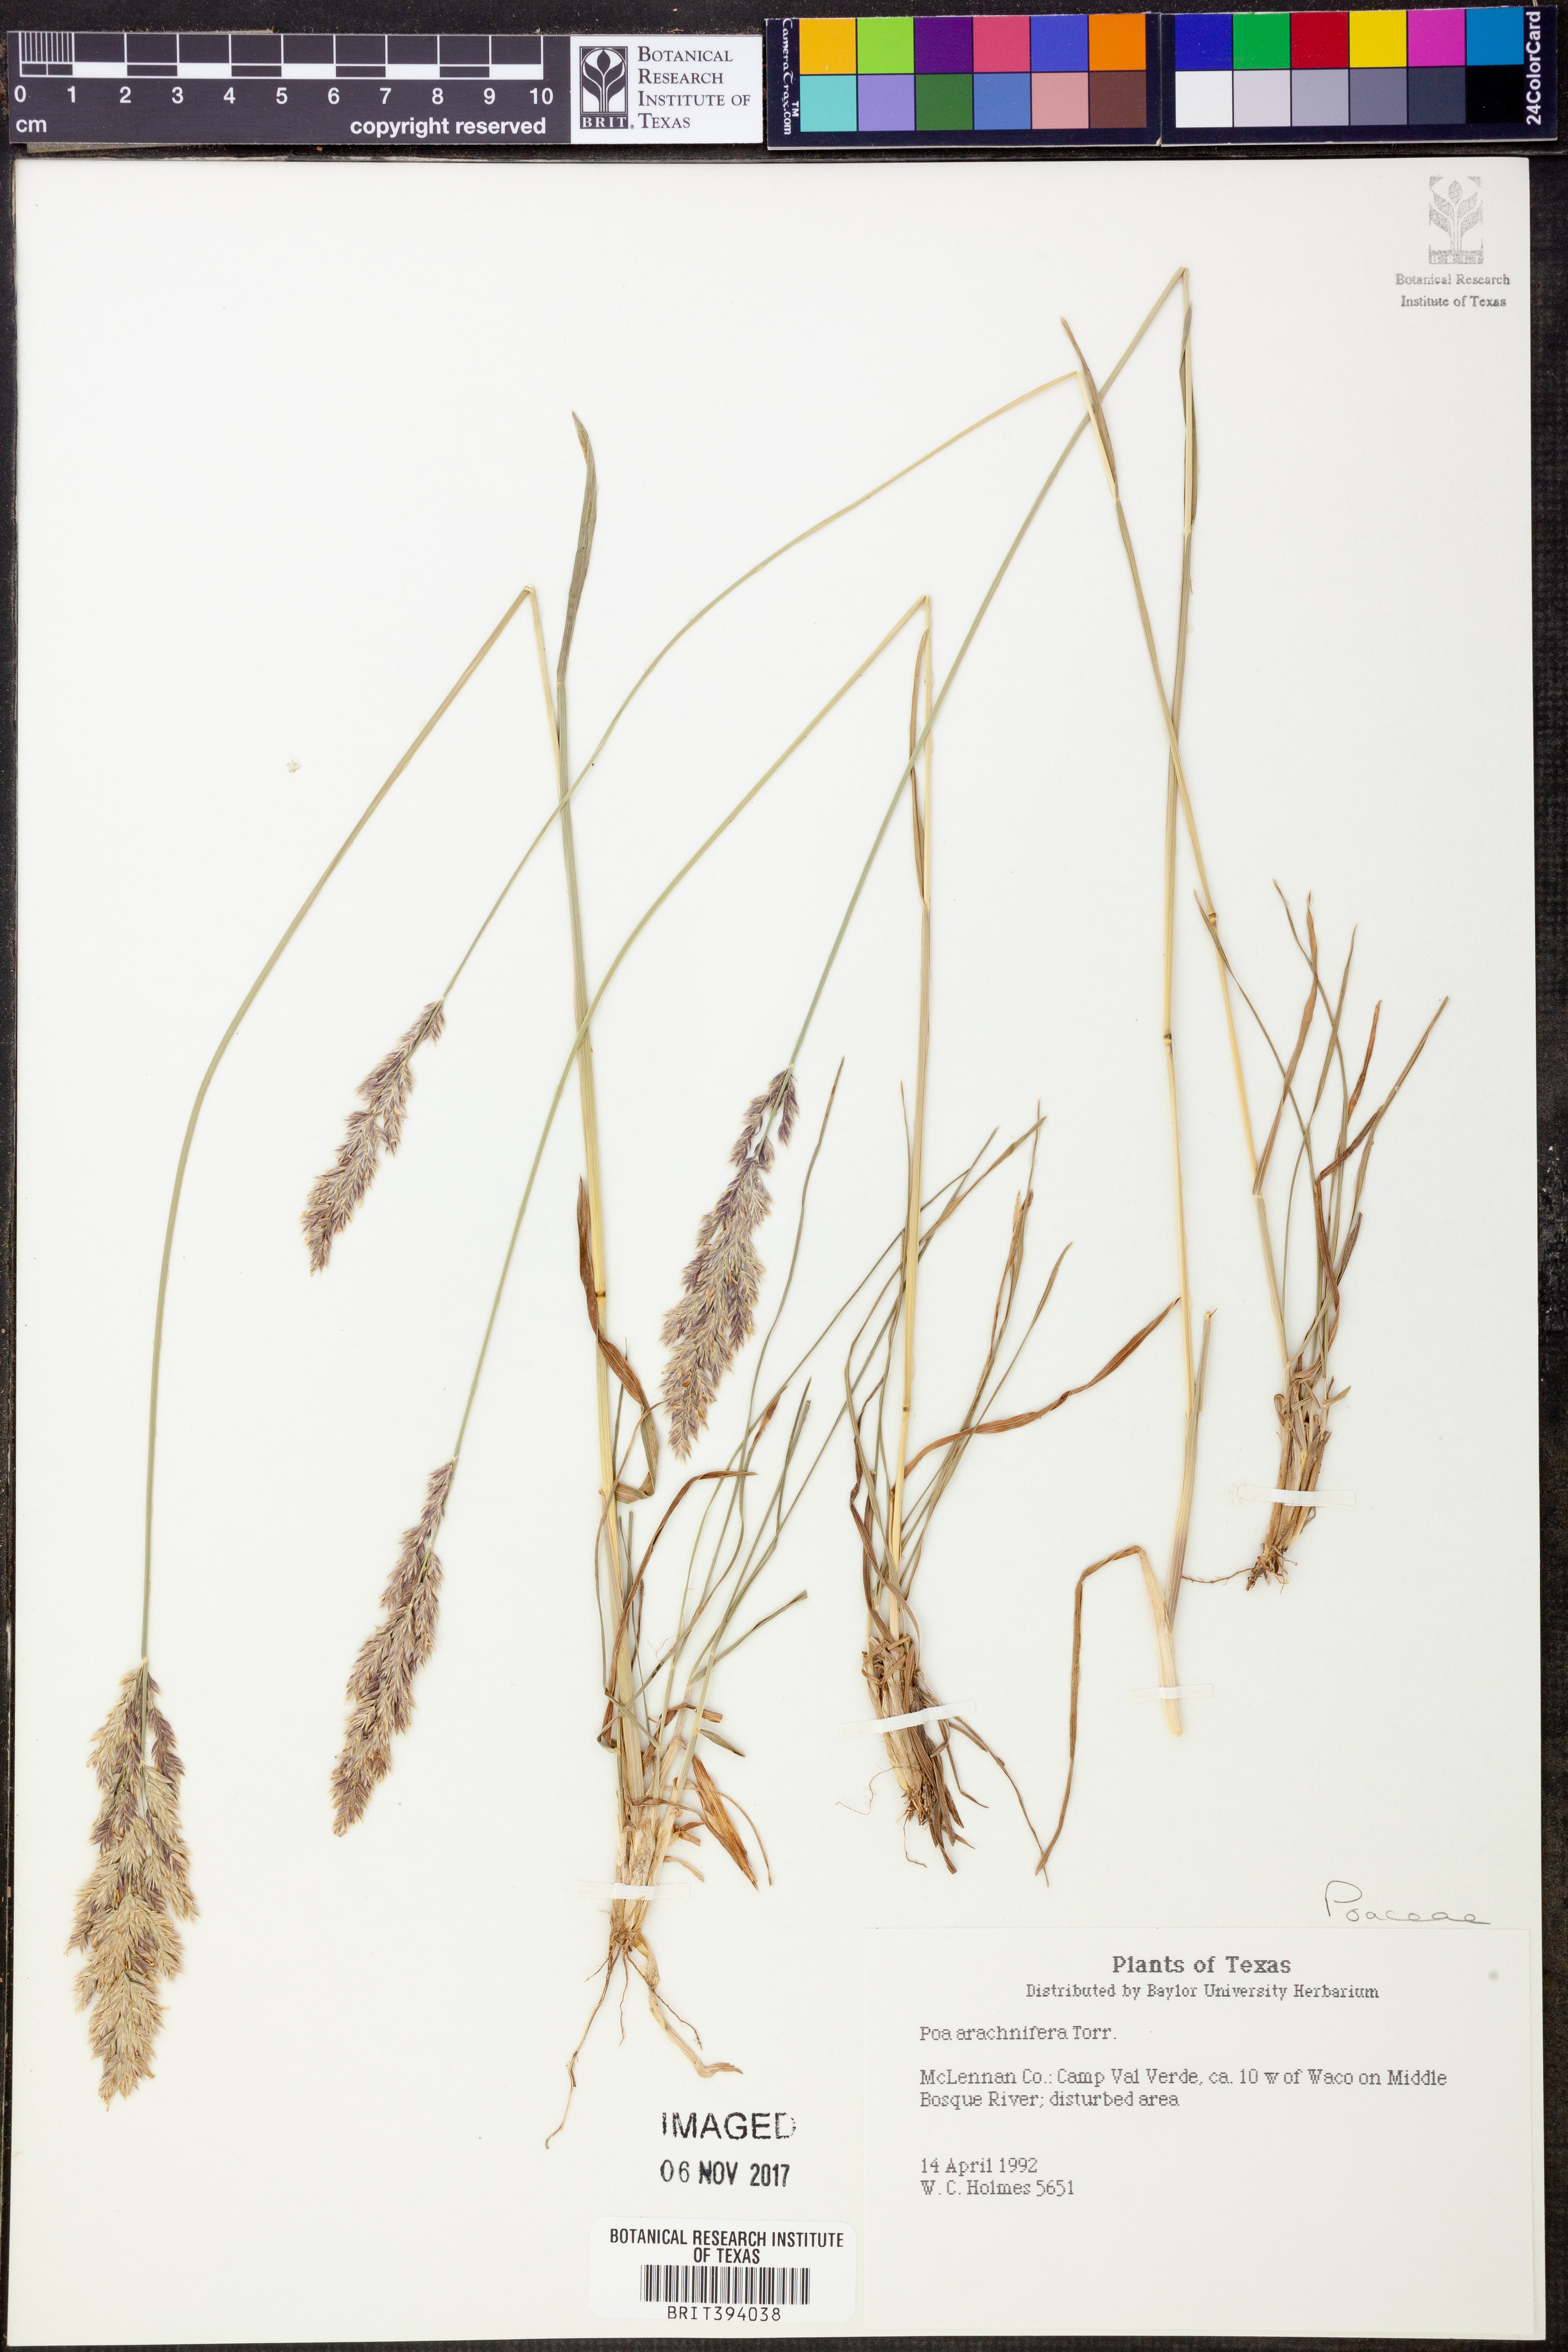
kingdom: Plantae
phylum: Tracheophyta
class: Liliopsida
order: Poales
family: Poaceae
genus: Poa
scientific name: Poa arachnifera
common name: Texas bluegrass
